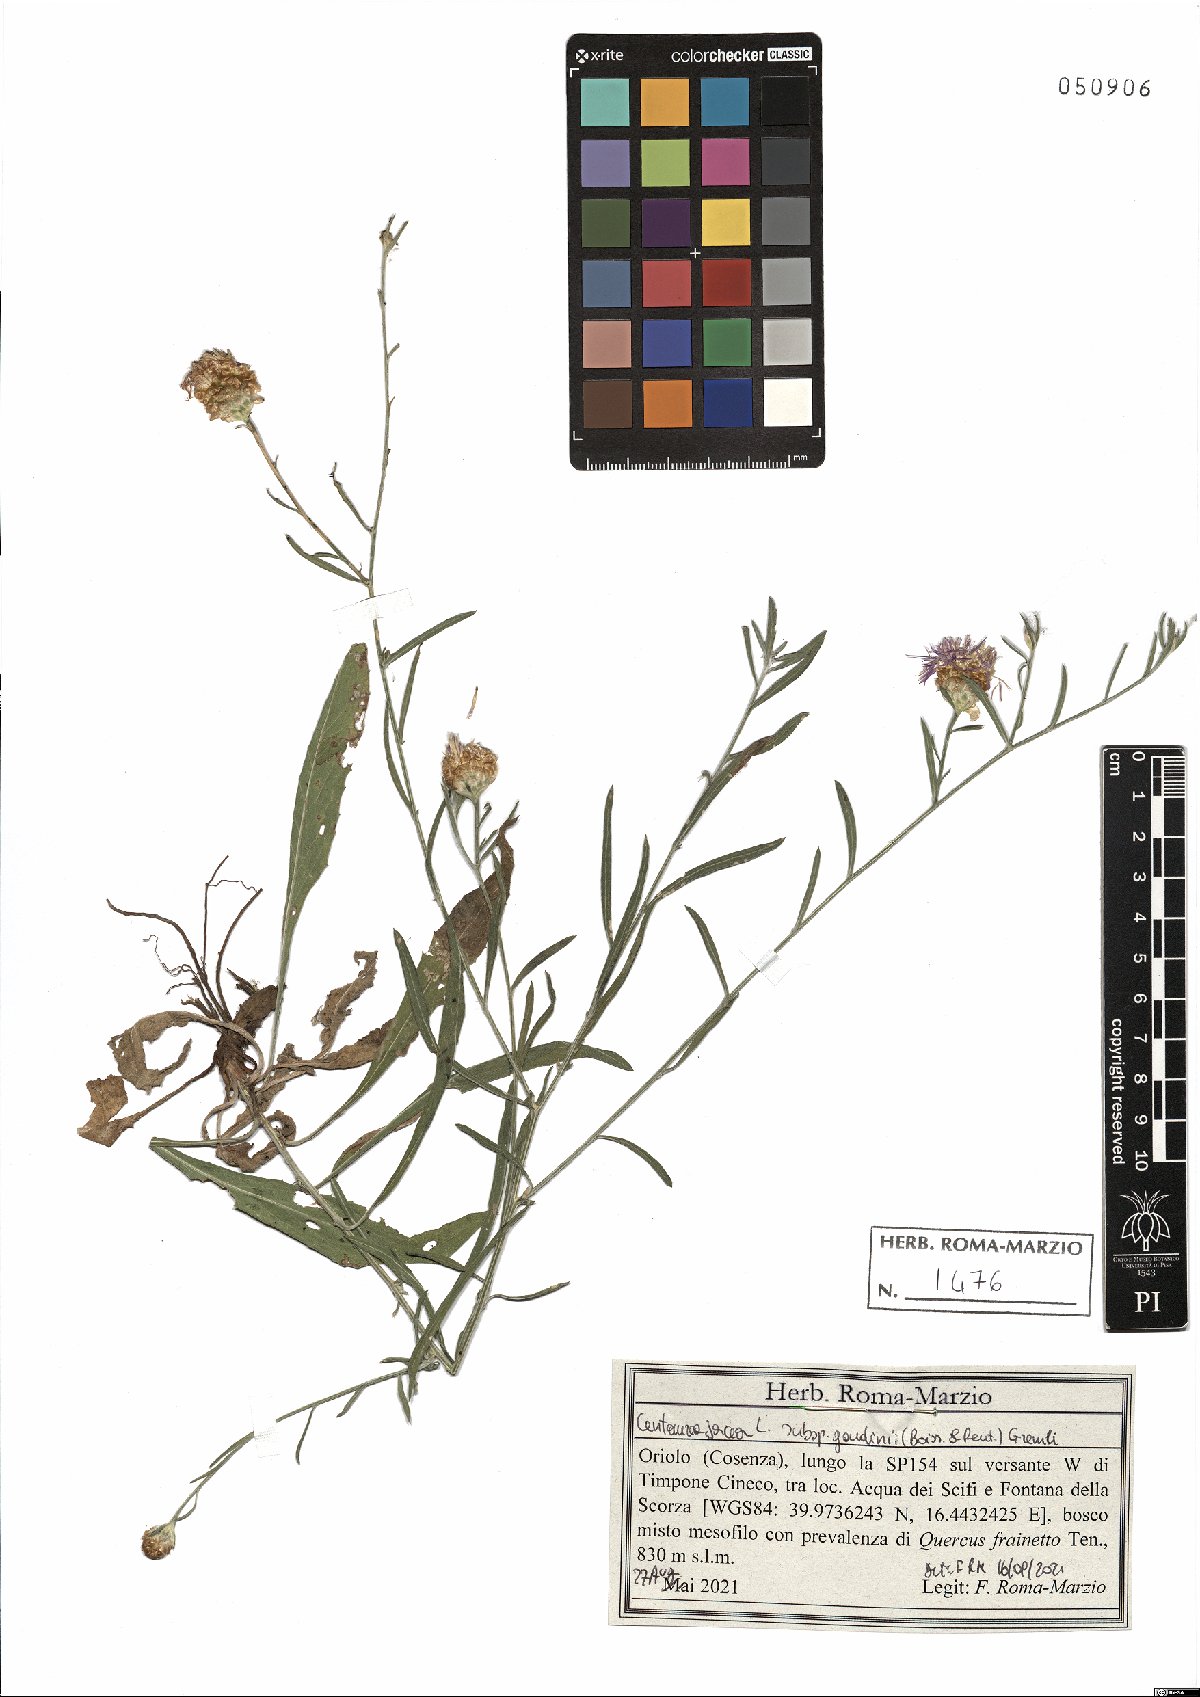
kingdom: Plantae
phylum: Tracheophyta
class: Magnoliopsida
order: Asterales
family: Asteraceae
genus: Centaurea
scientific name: Centaurea jacea
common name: Brown knapweed
